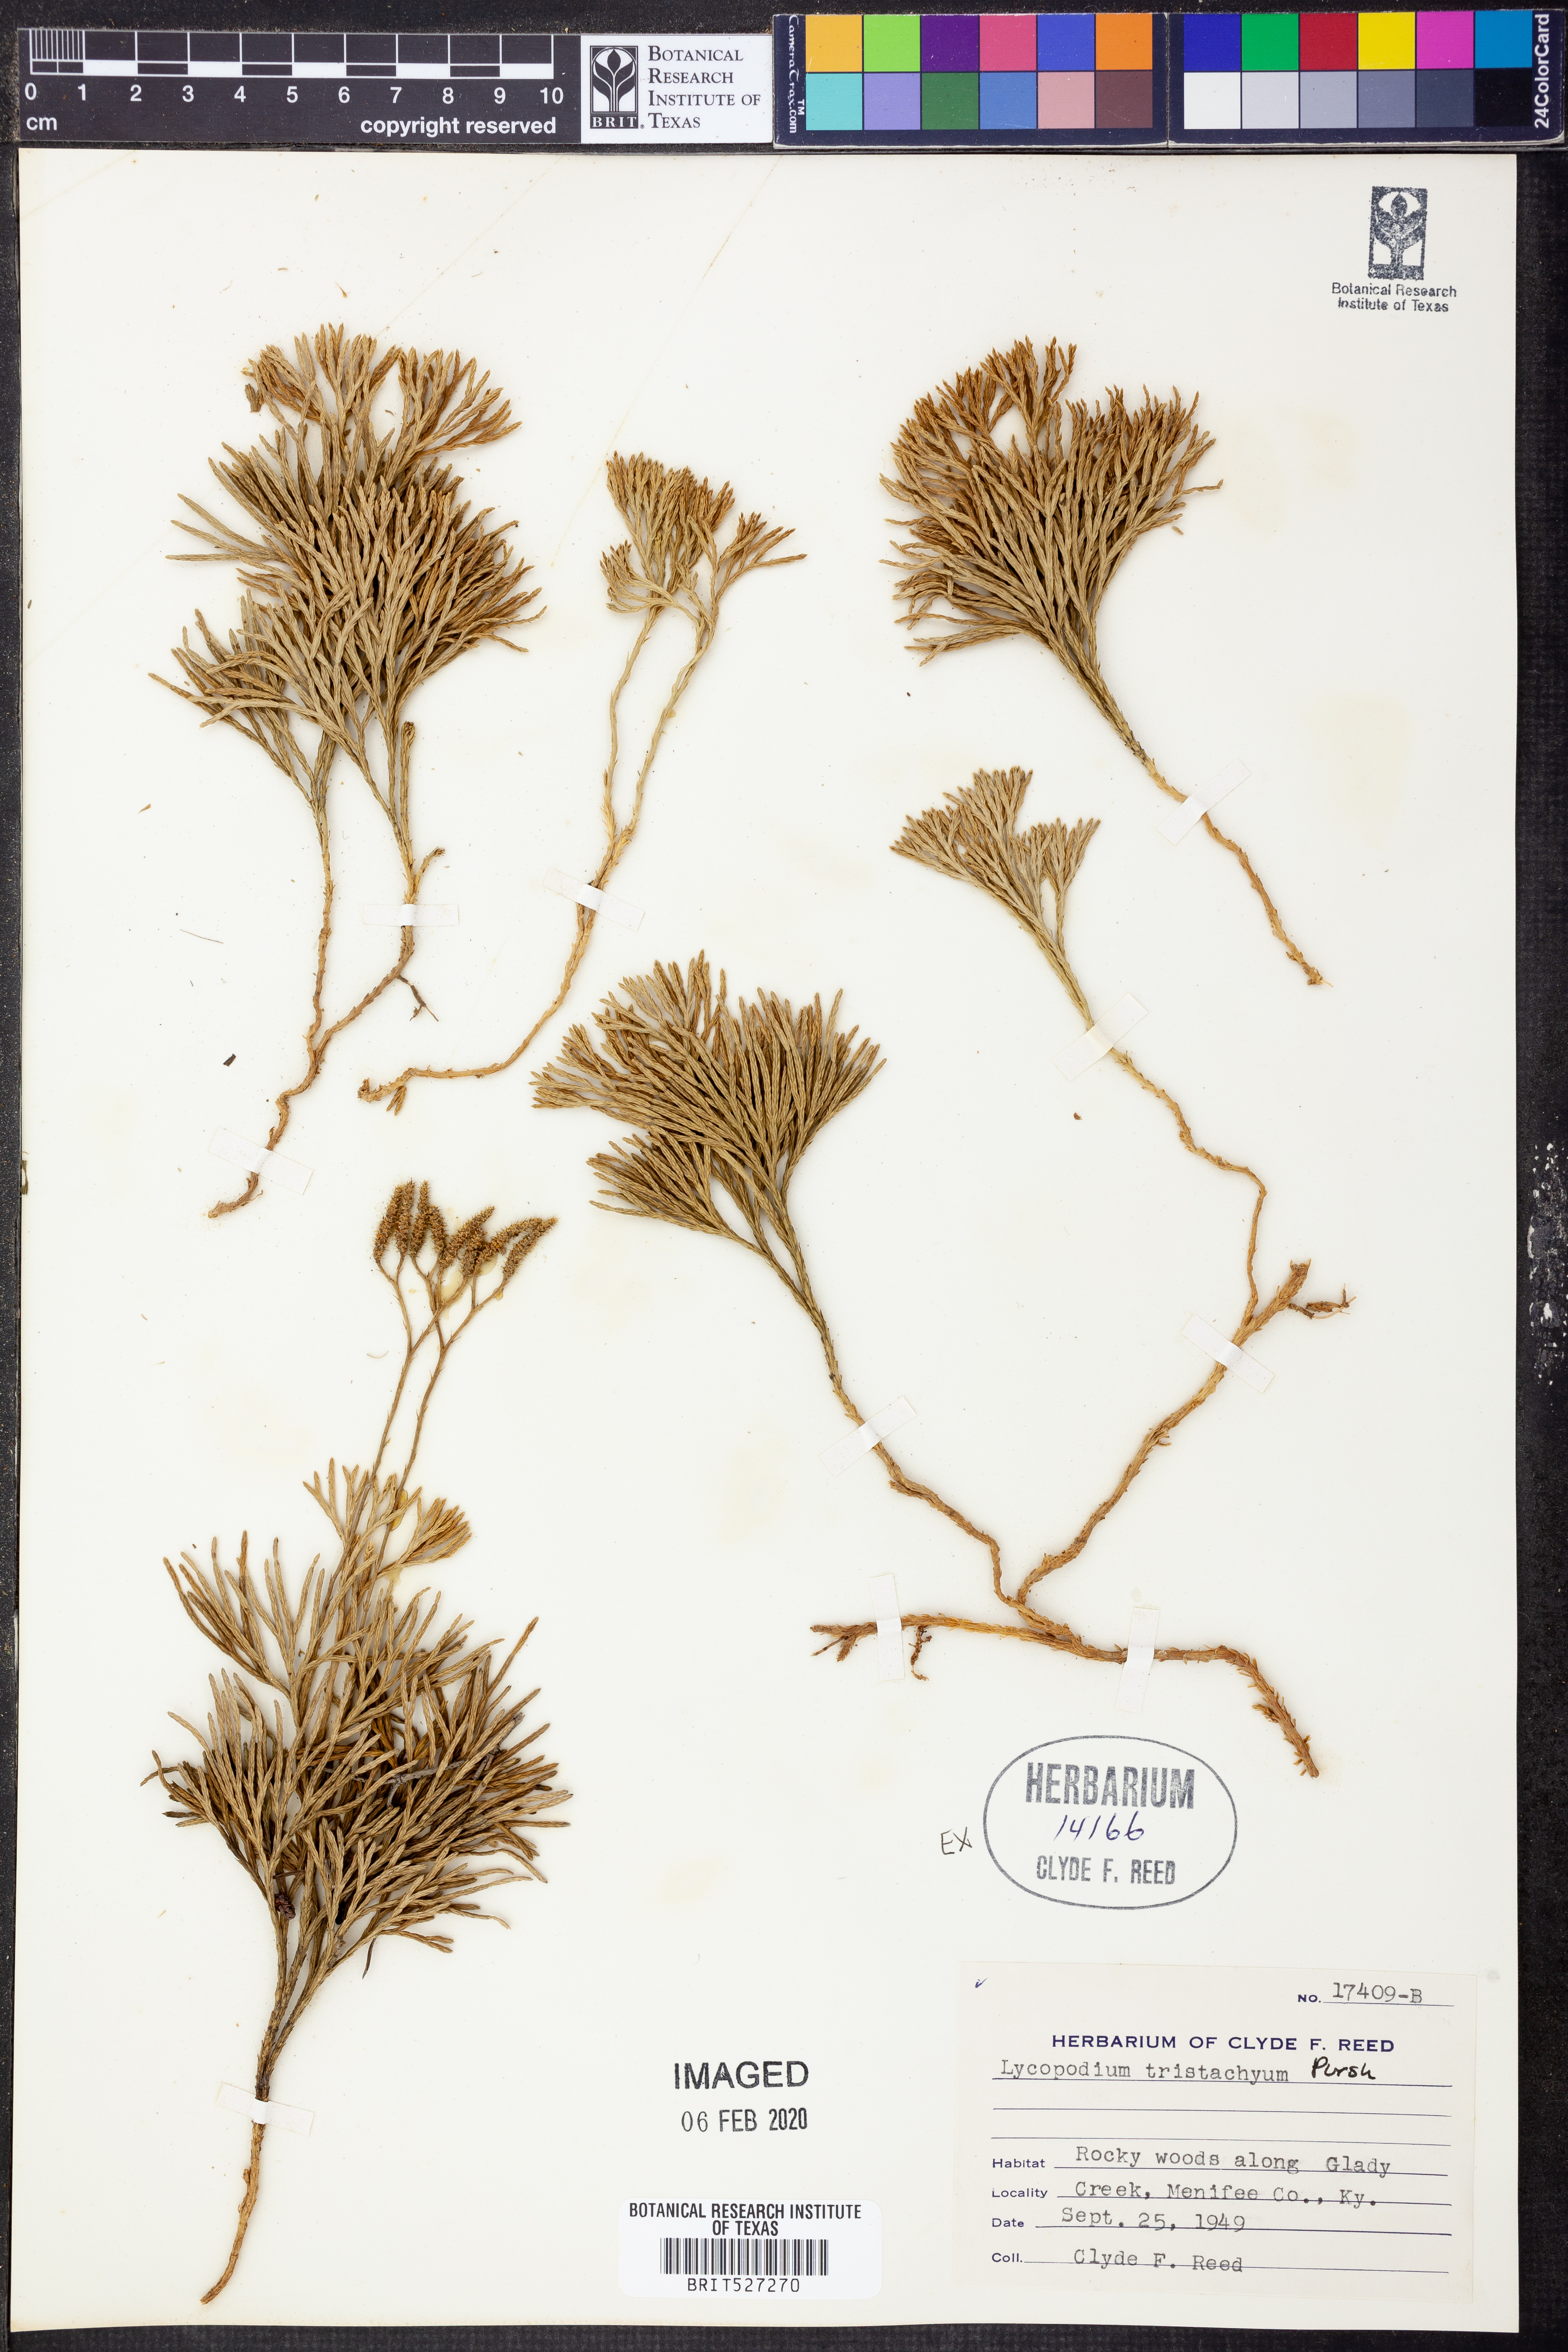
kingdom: Plantae
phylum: Tracheophyta
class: Lycopodiopsida
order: Lycopodiales
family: Lycopodiaceae
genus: Diphasiastrum
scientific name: Diphasiastrum tristachyum
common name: Blue ground-cedar
